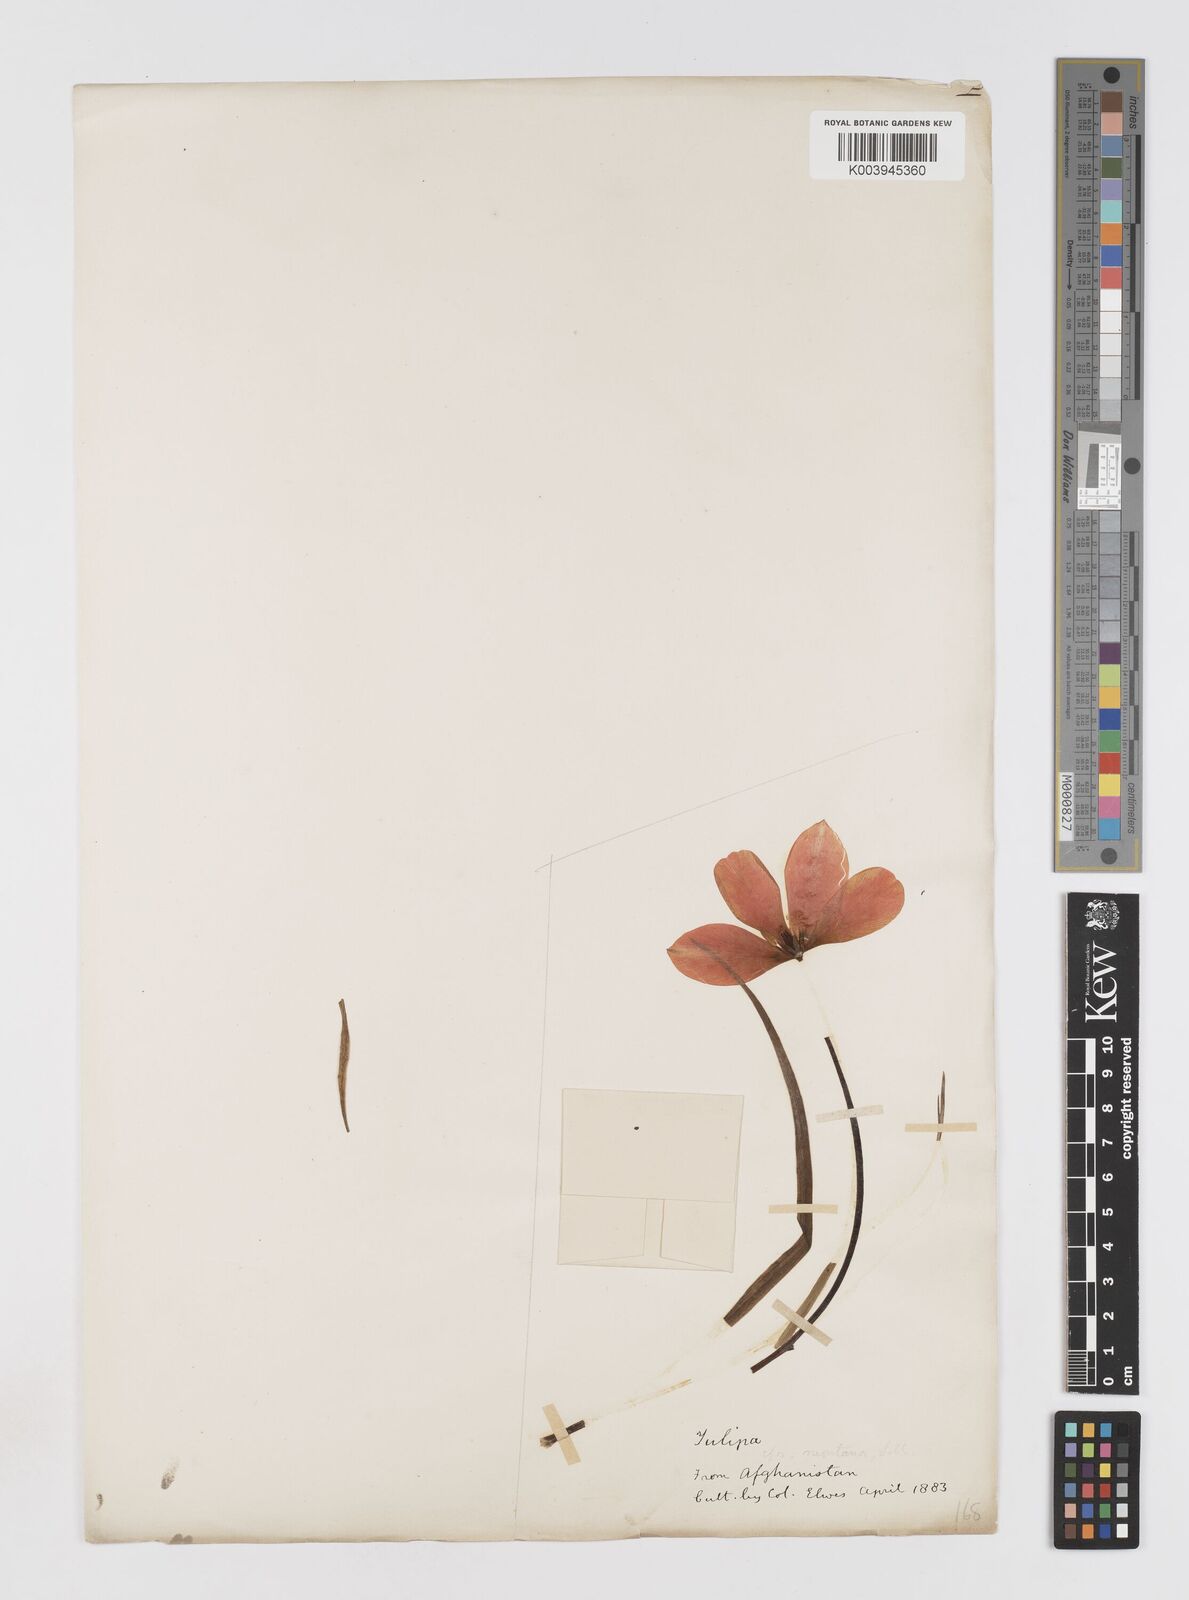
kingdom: Plantae
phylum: Tracheophyta
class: Liliopsida
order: Liliales
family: Liliaceae
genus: Tulipa
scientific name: Tulipa
